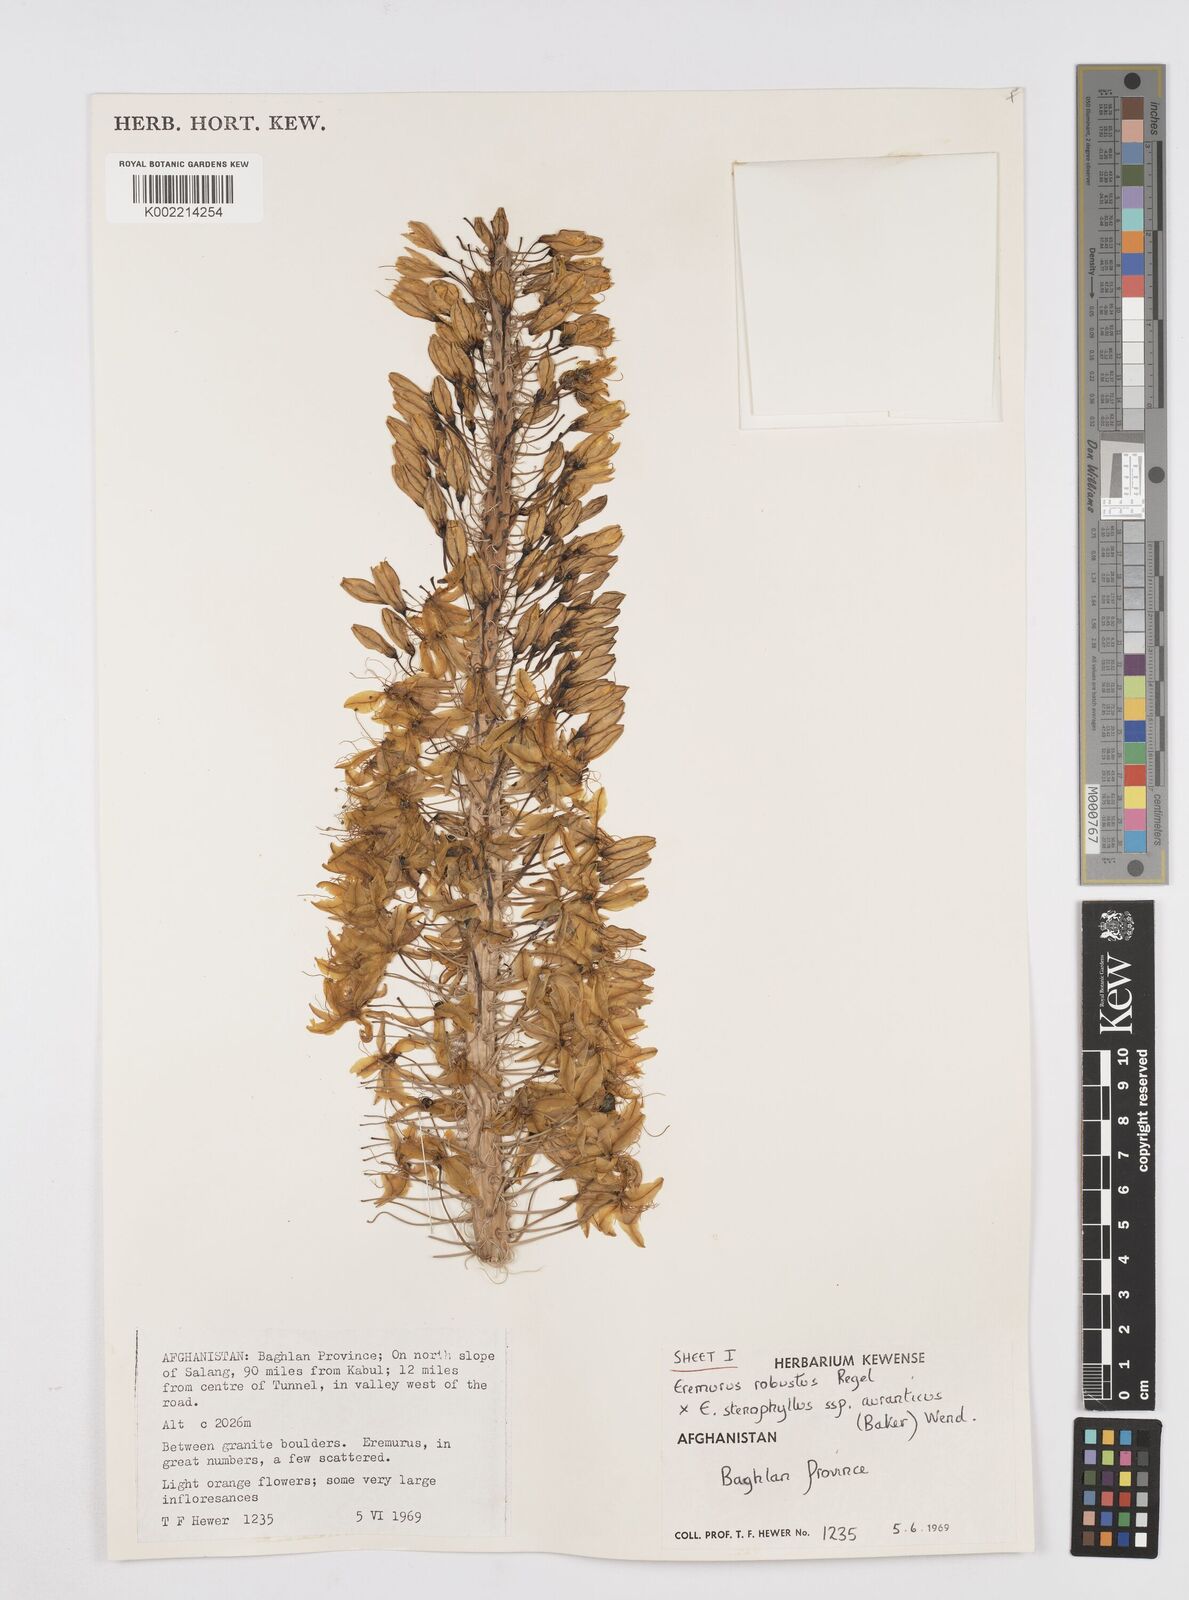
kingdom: Plantae
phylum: Tracheophyta
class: Liliopsida
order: Asparagales
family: Asphodelaceae
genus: Eremurus
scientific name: Eremurus stenophyllus
